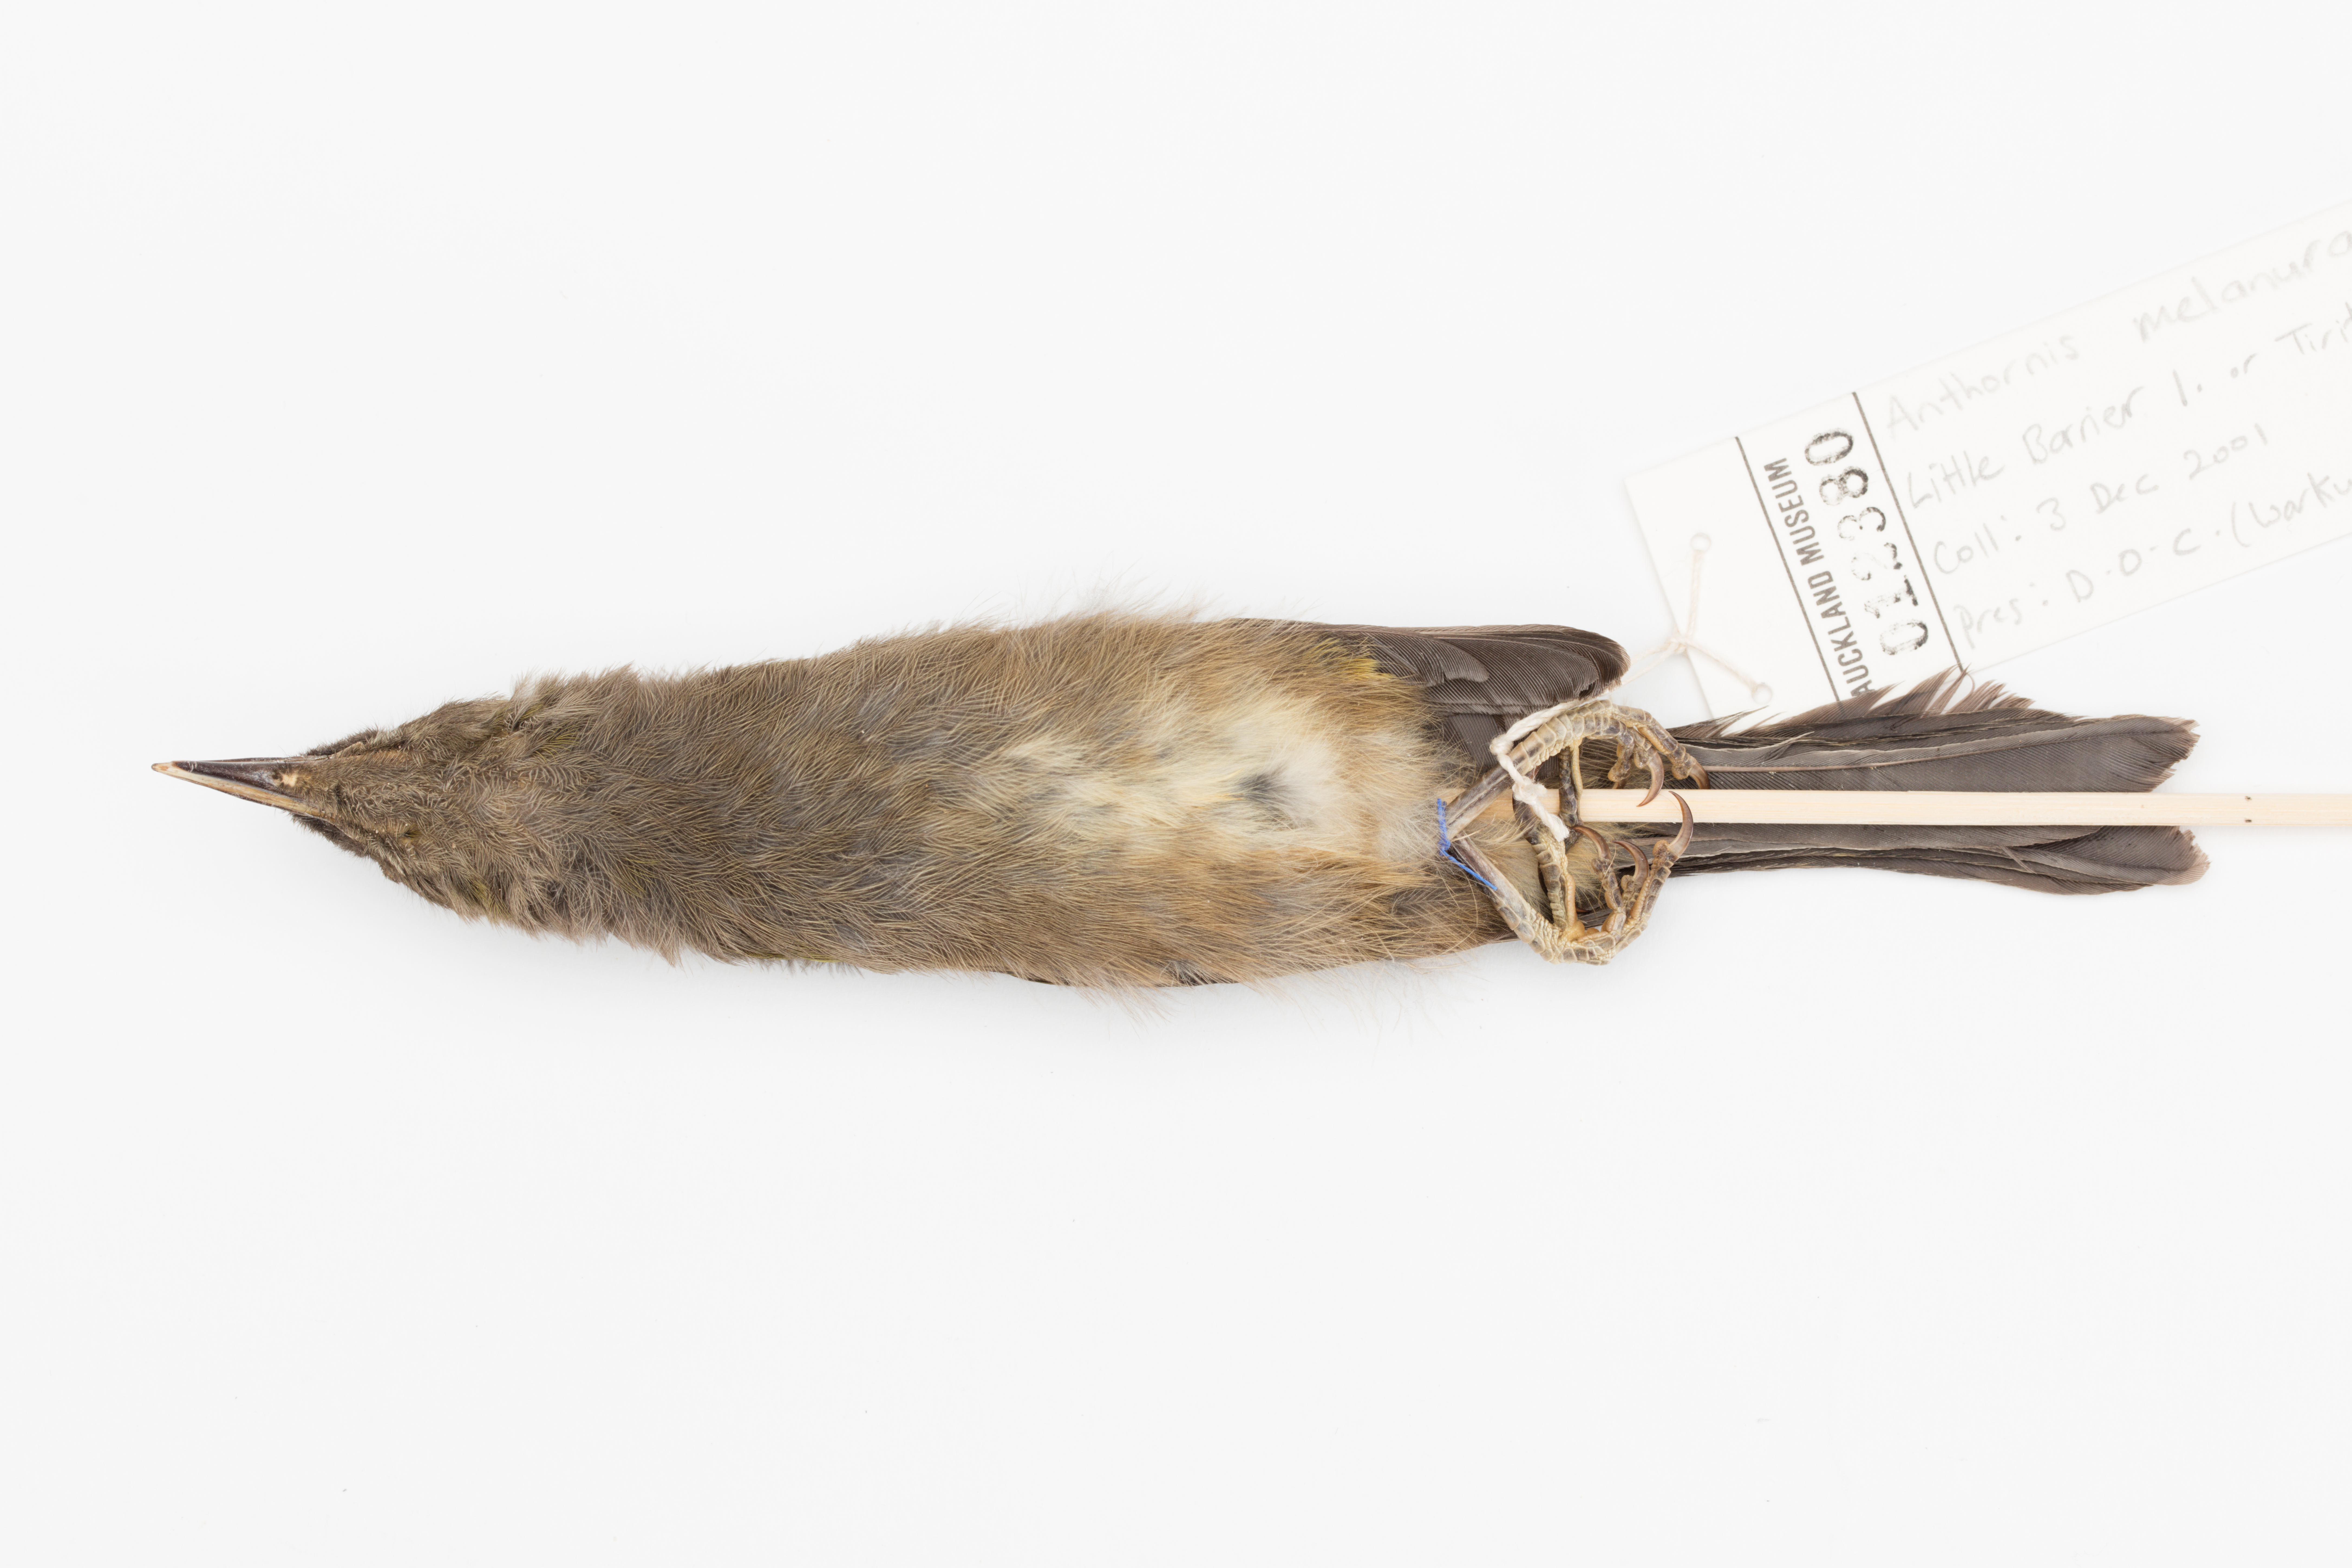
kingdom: Animalia
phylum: Chordata
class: Aves
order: Passeriformes
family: Meliphagidae
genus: Anthornis
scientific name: Anthornis melanura
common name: New zealand bellbird
